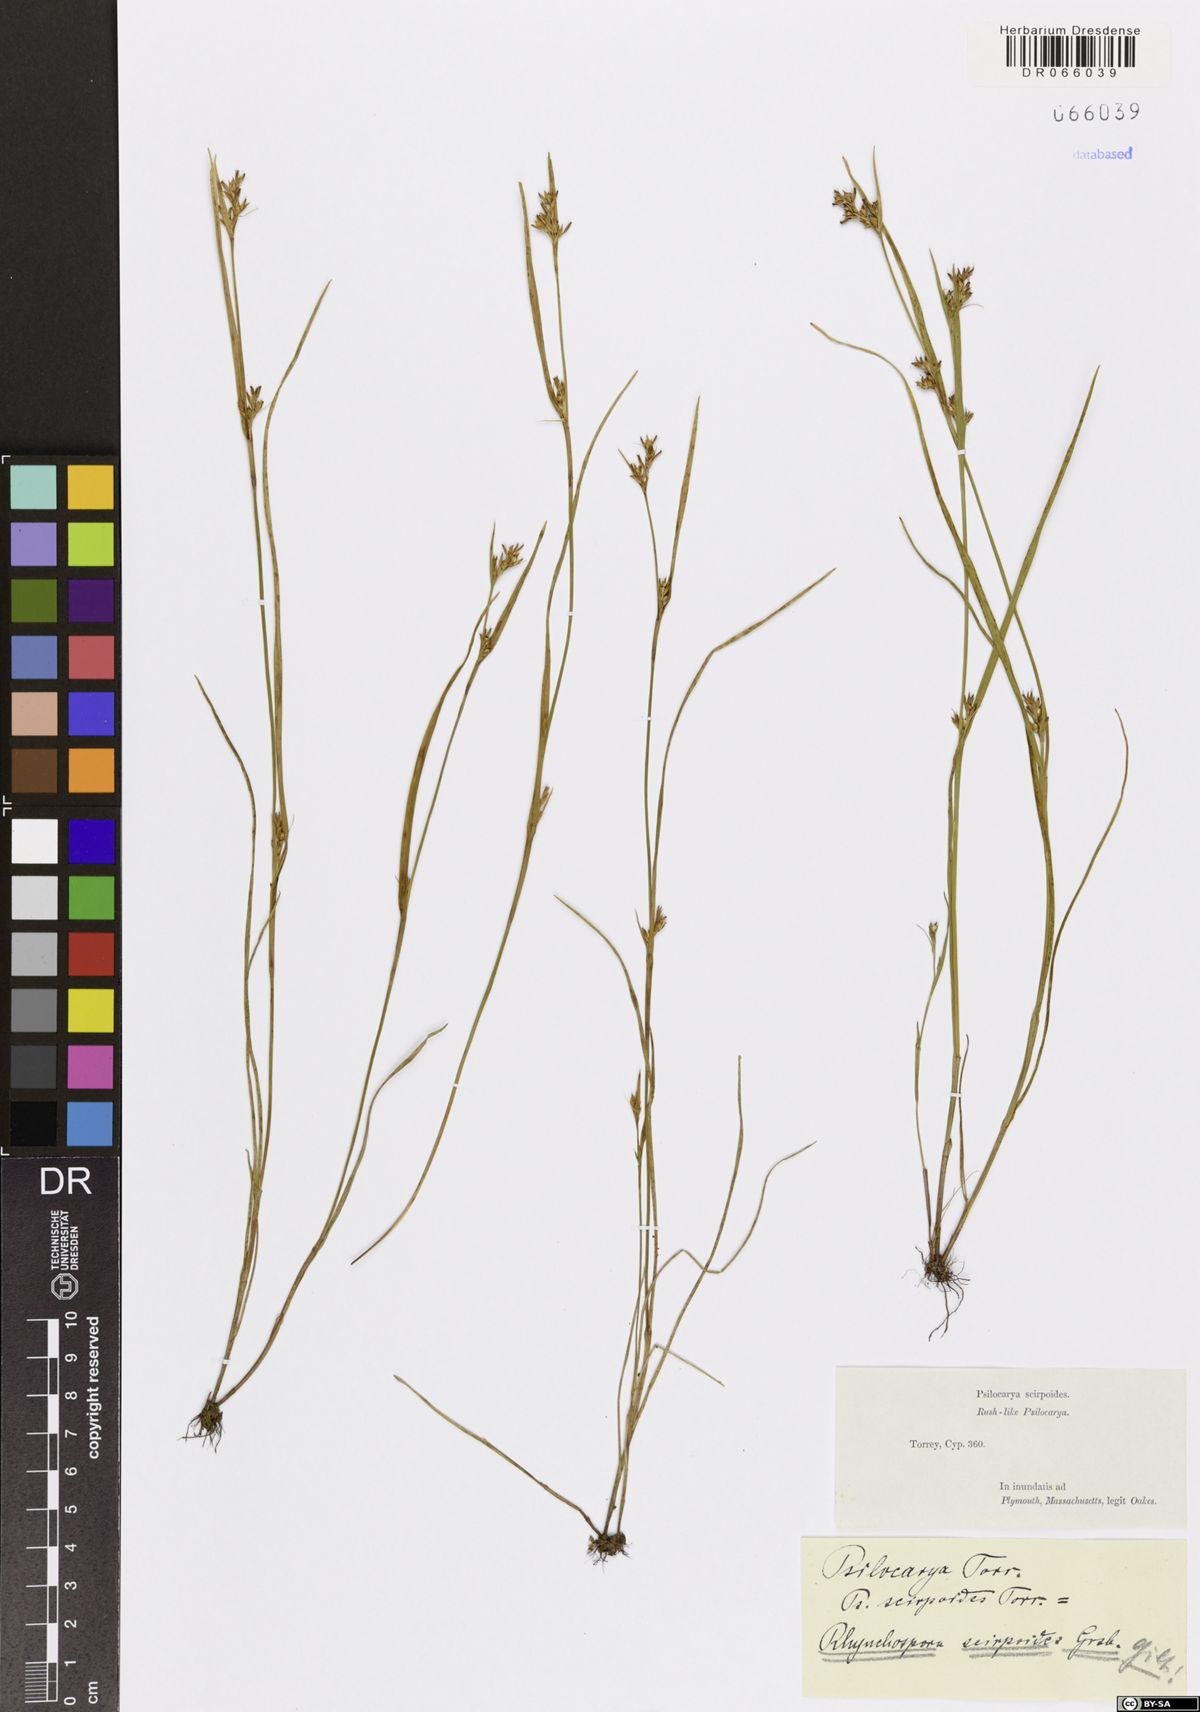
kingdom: Plantae
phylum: Tracheophyta
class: Liliopsida
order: Poales
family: Cyperaceae
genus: Rhynchospora
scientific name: Rhynchospora scirpoides
